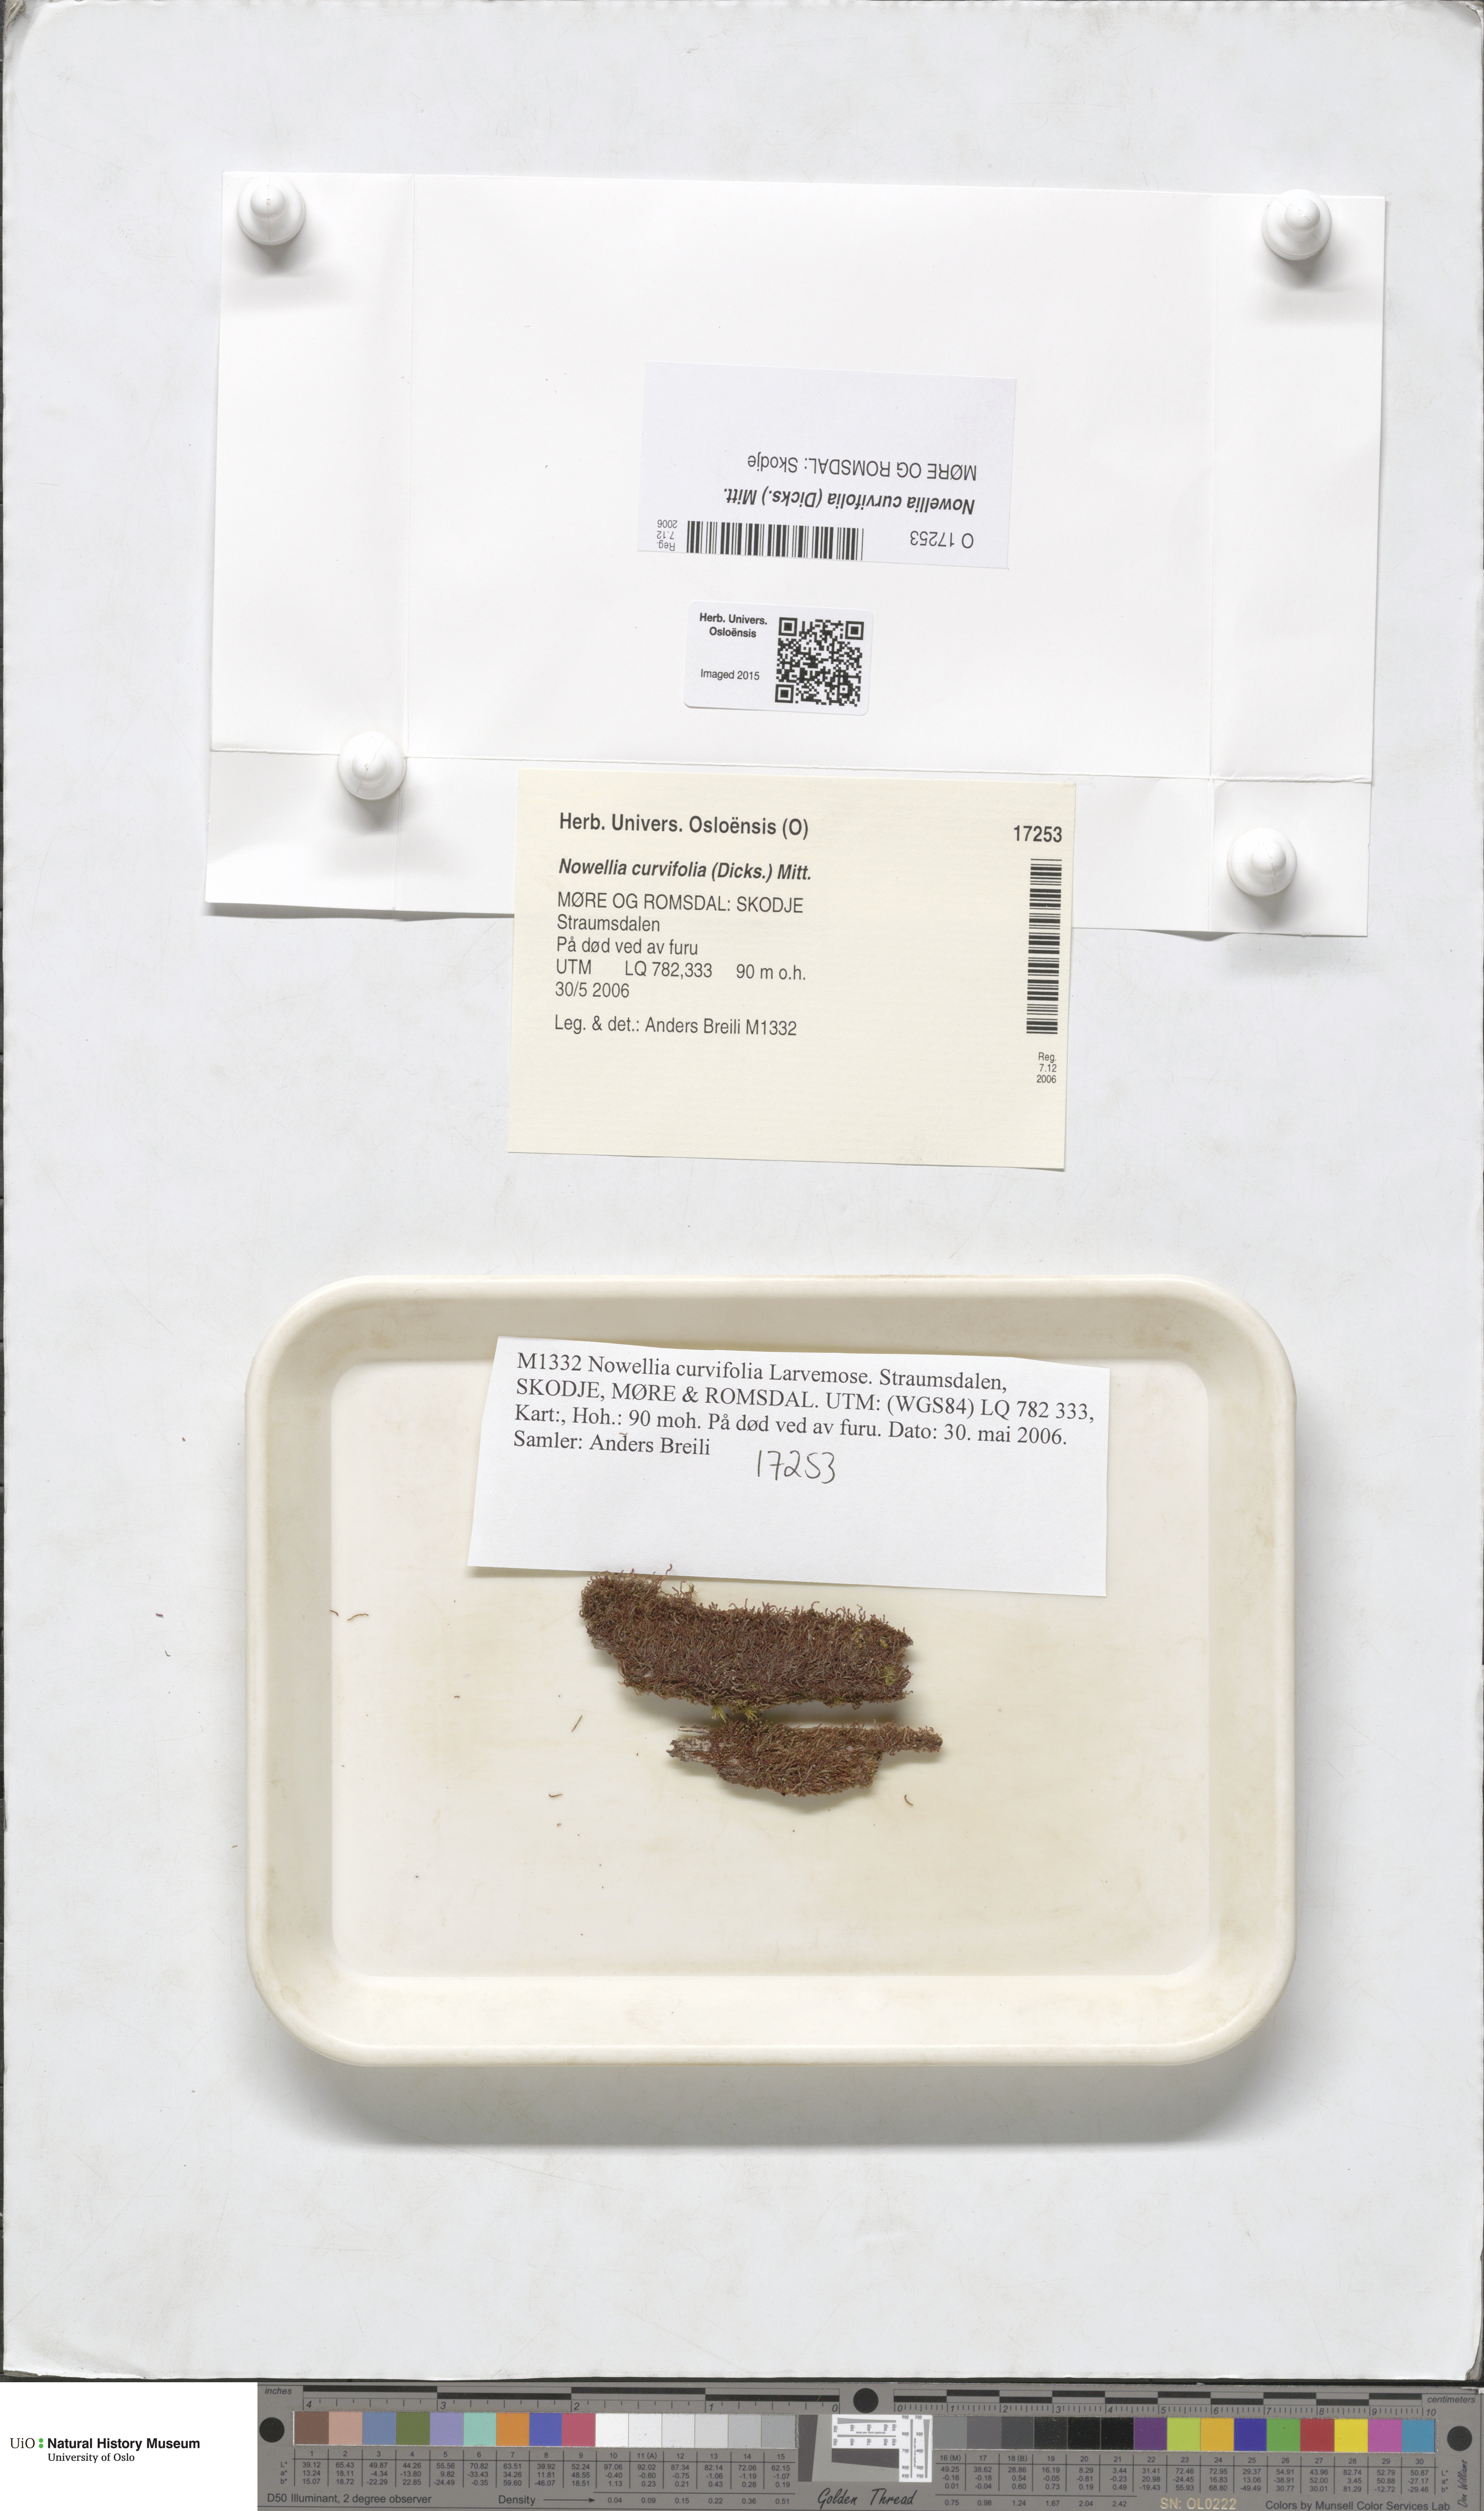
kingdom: Plantae
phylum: Marchantiophyta
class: Jungermanniopsida
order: Jungermanniales
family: Cephaloziaceae
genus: Nowellia
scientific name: Nowellia curvifolia
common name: Wood rustwort
